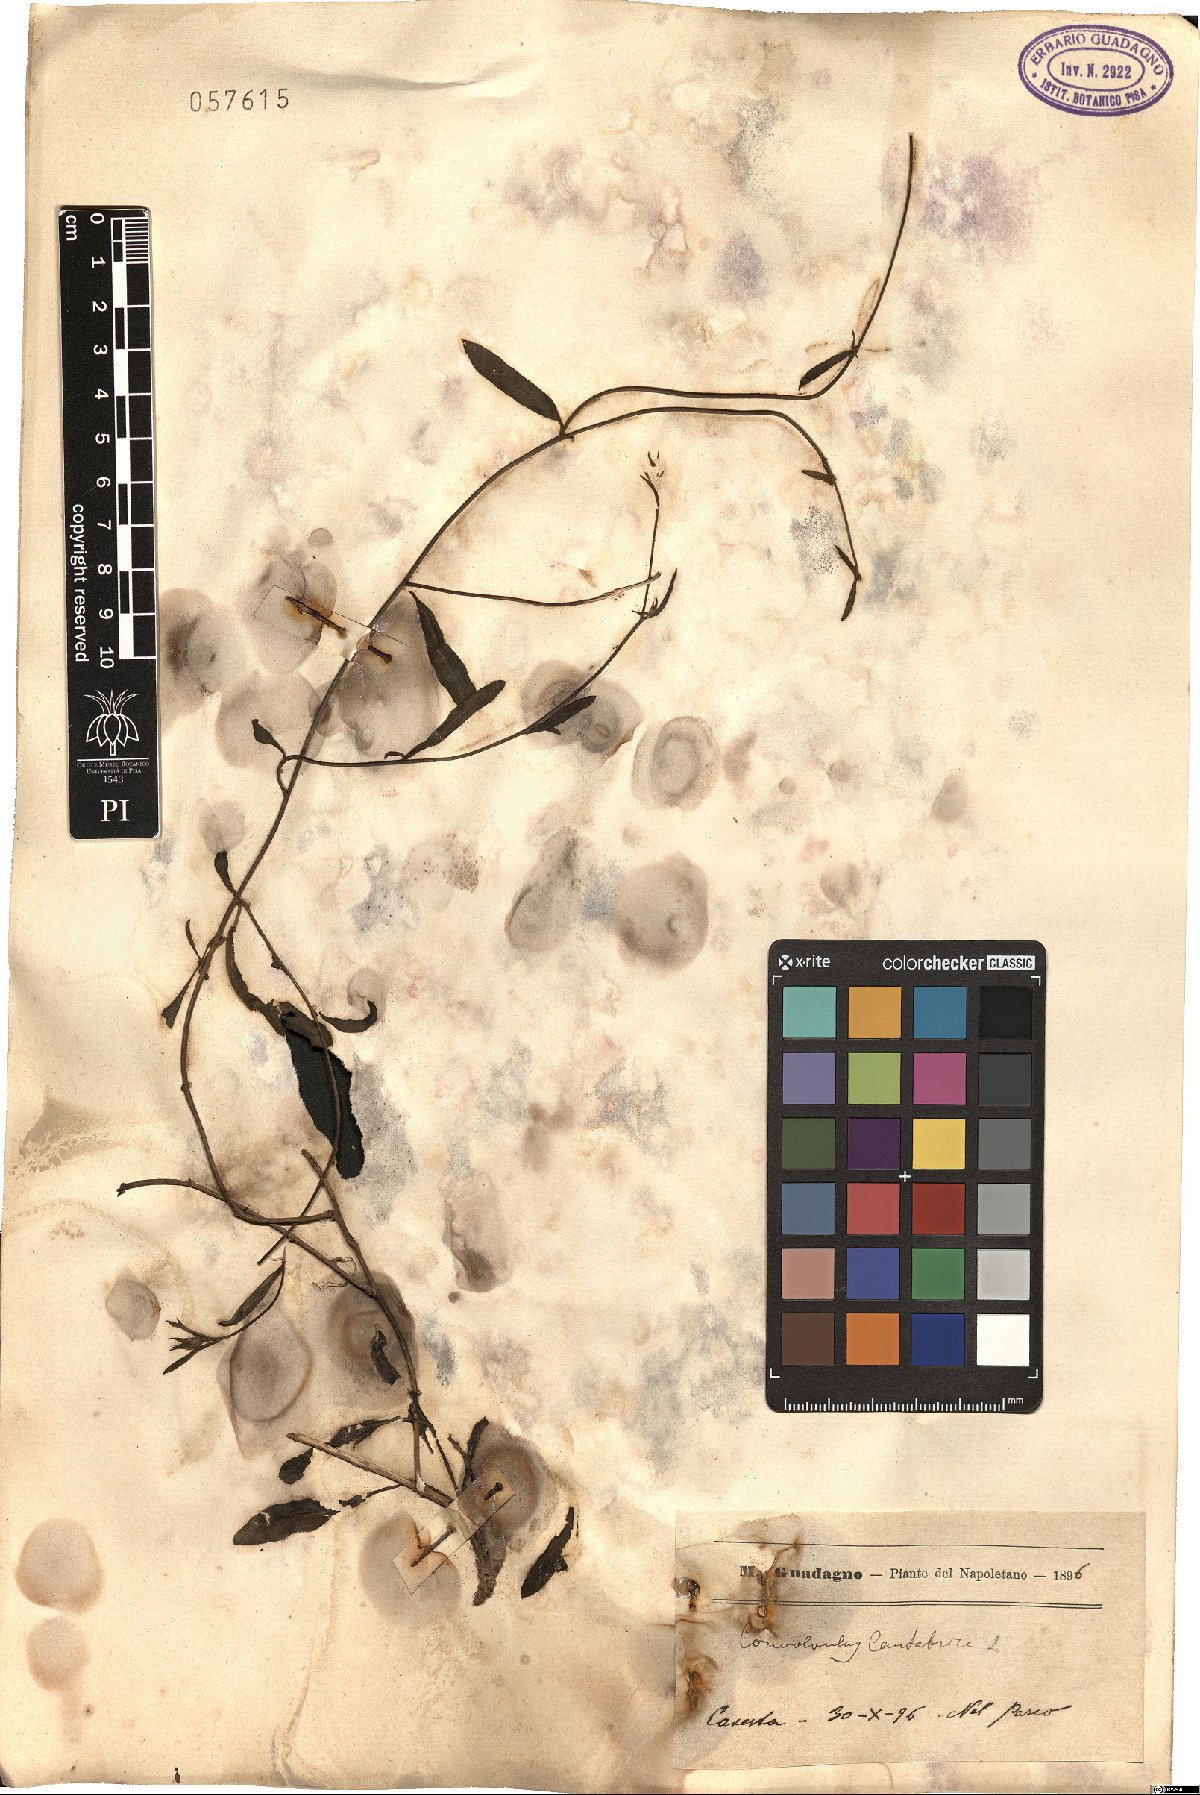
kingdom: Plantae
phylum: Tracheophyta
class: Magnoliopsida
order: Solanales
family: Convolvulaceae
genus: Convolvulus
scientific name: Convolvulus cantabrica
